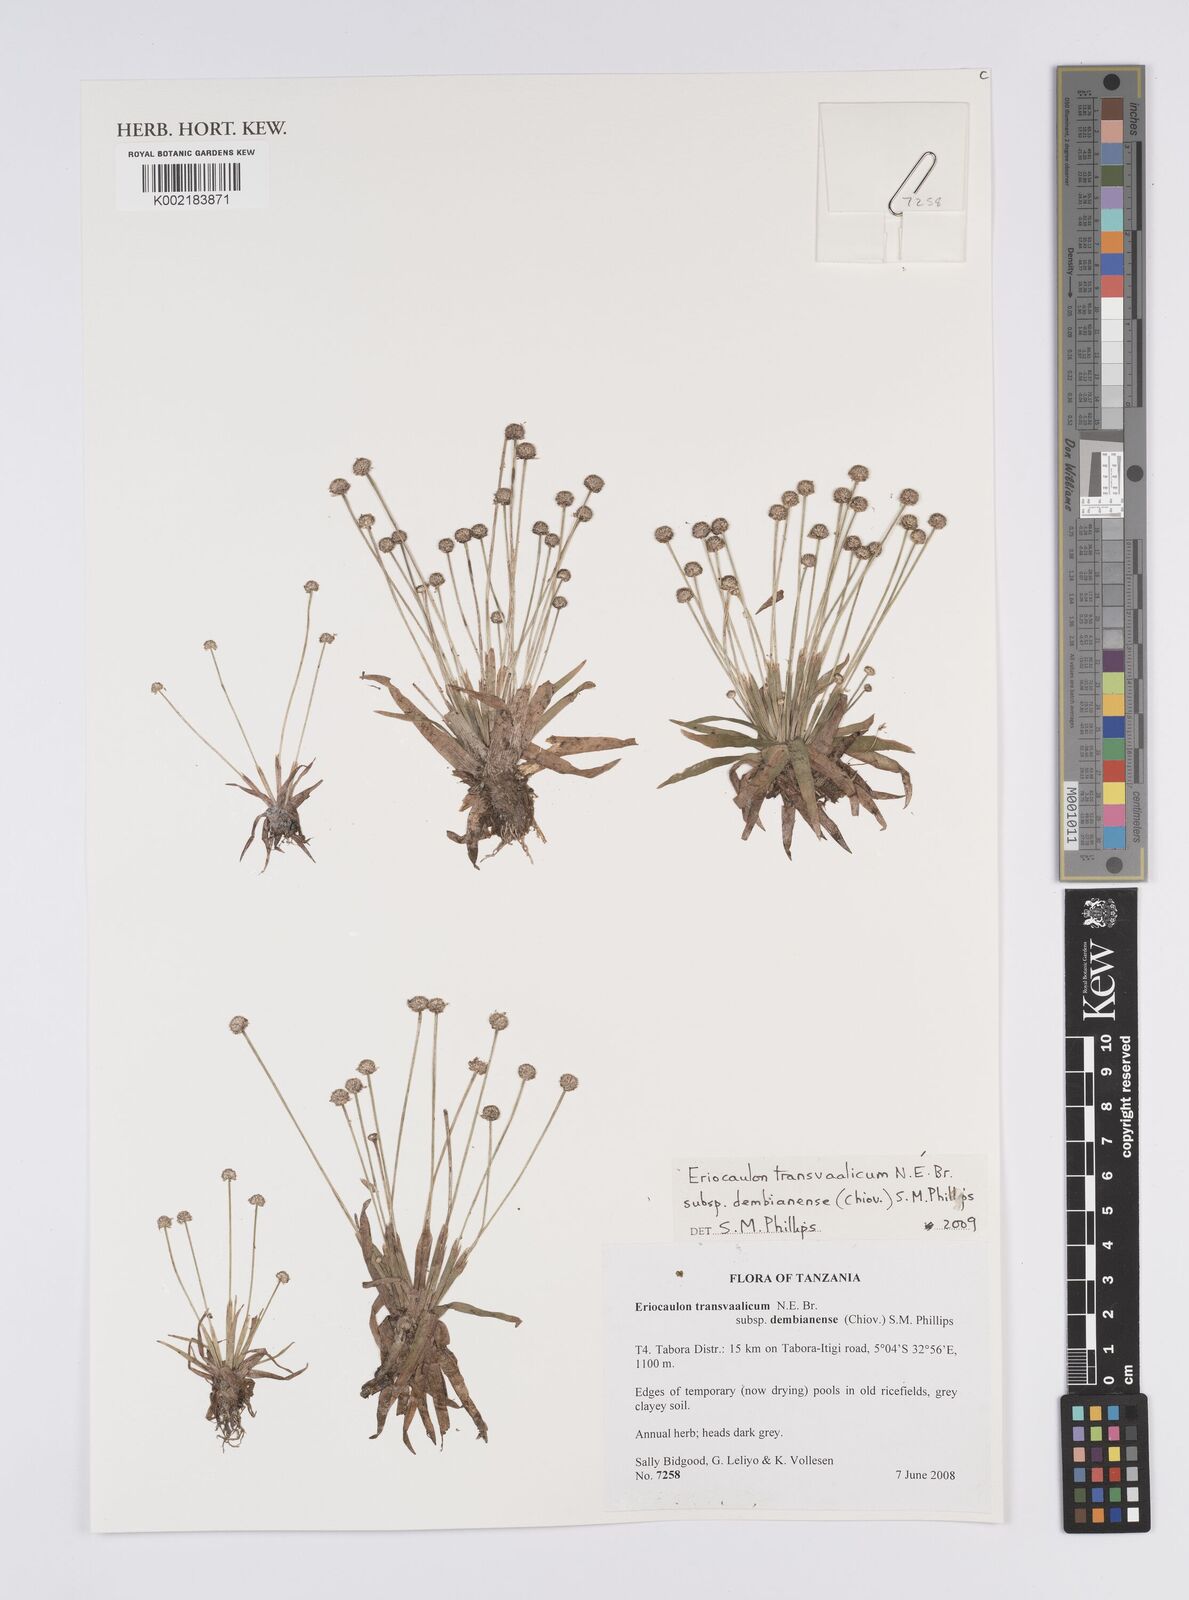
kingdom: Plantae
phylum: Tracheophyta
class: Liliopsida
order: Poales
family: Eriocaulaceae
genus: Eriocaulon
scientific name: Eriocaulon transvaalicum
